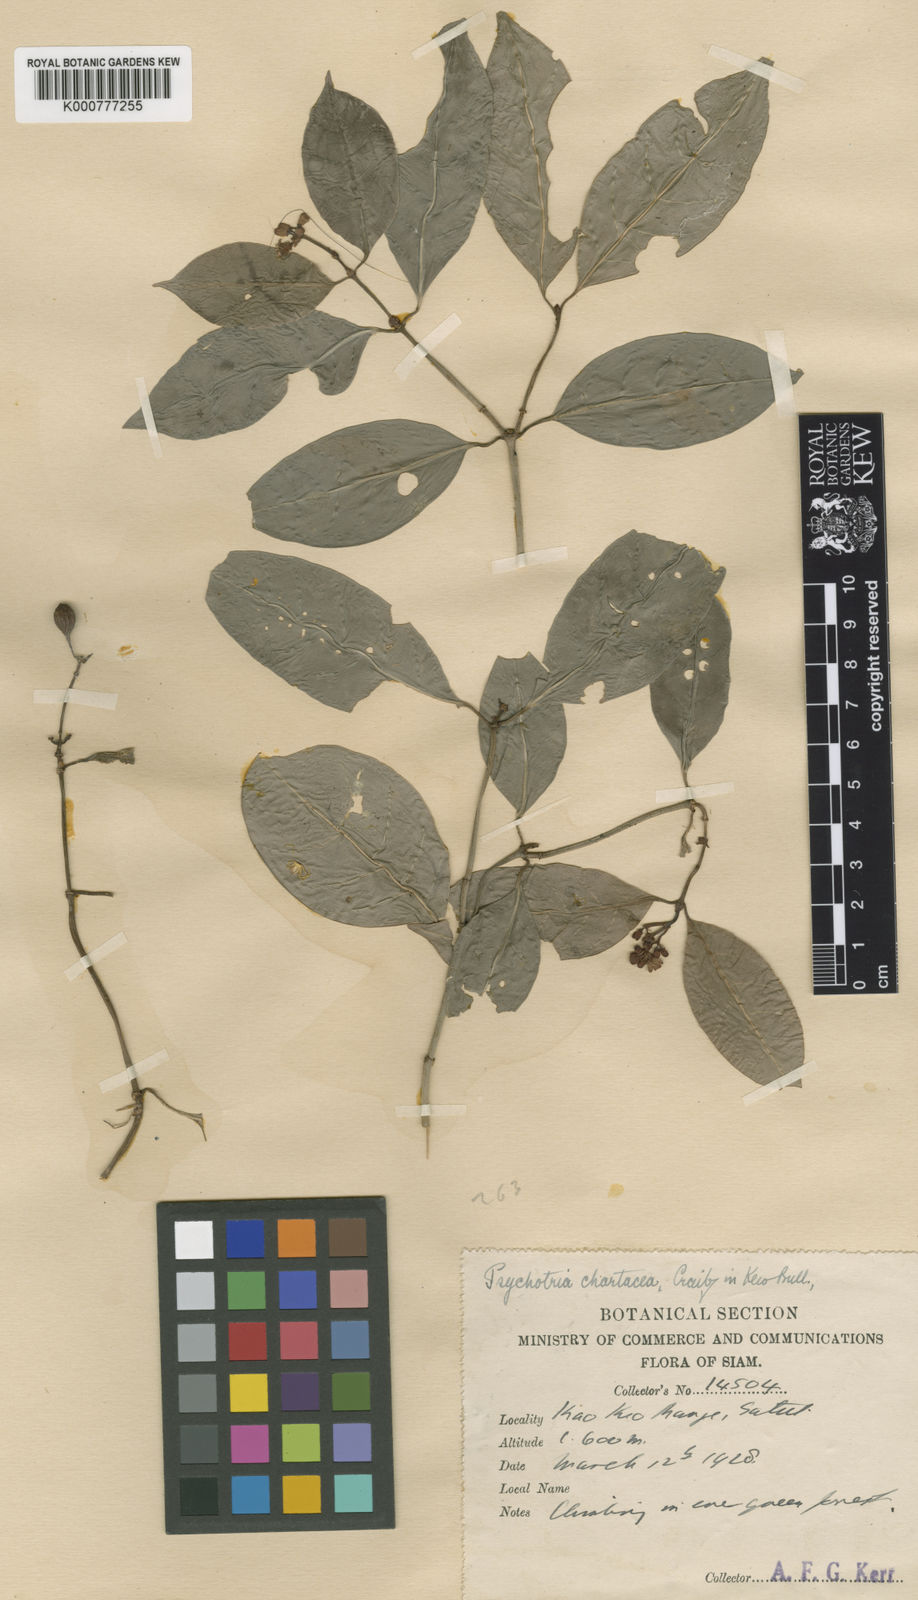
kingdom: Plantae
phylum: Tracheophyta
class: Magnoliopsida
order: Gentianales
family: Rubiaceae
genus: Psychotria
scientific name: Psychotria chartacea
